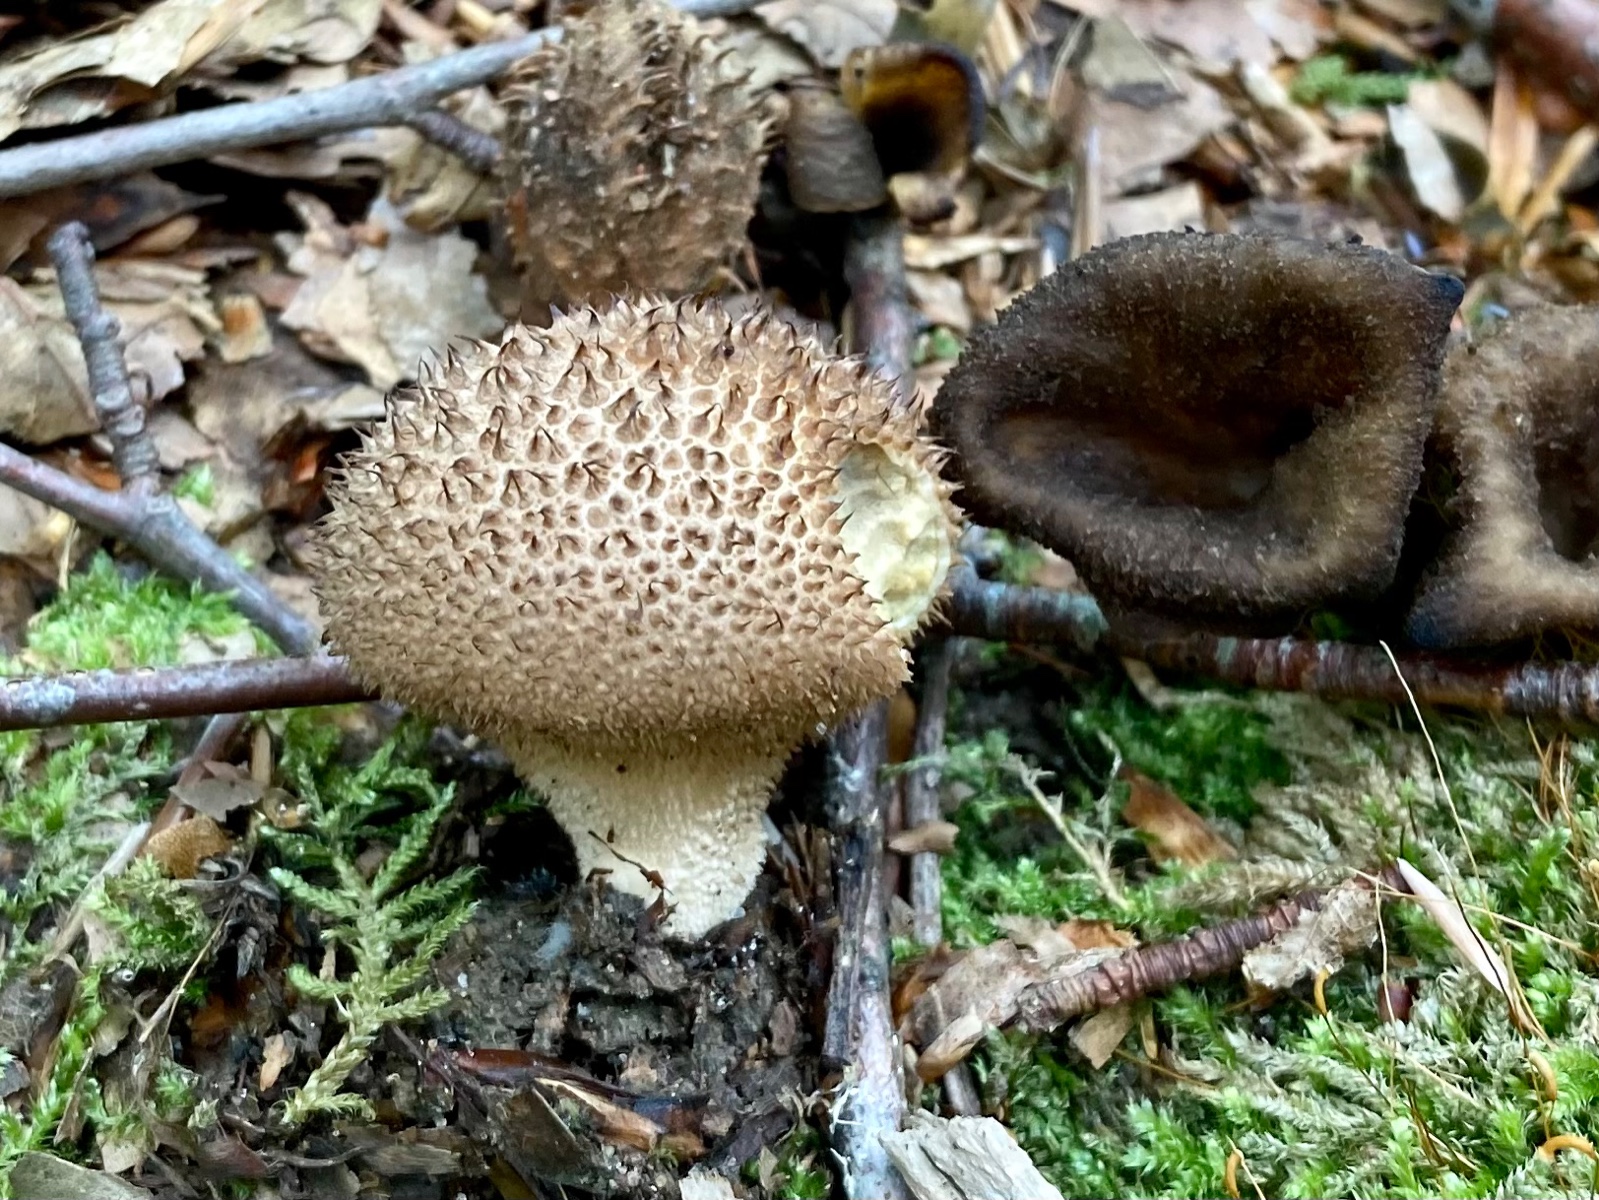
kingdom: Fungi
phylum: Basidiomycota
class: Agaricomycetes
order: Agaricales
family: Lycoperdaceae
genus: Lycoperdon
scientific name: Lycoperdon perlatum
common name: krystal-støvbold
